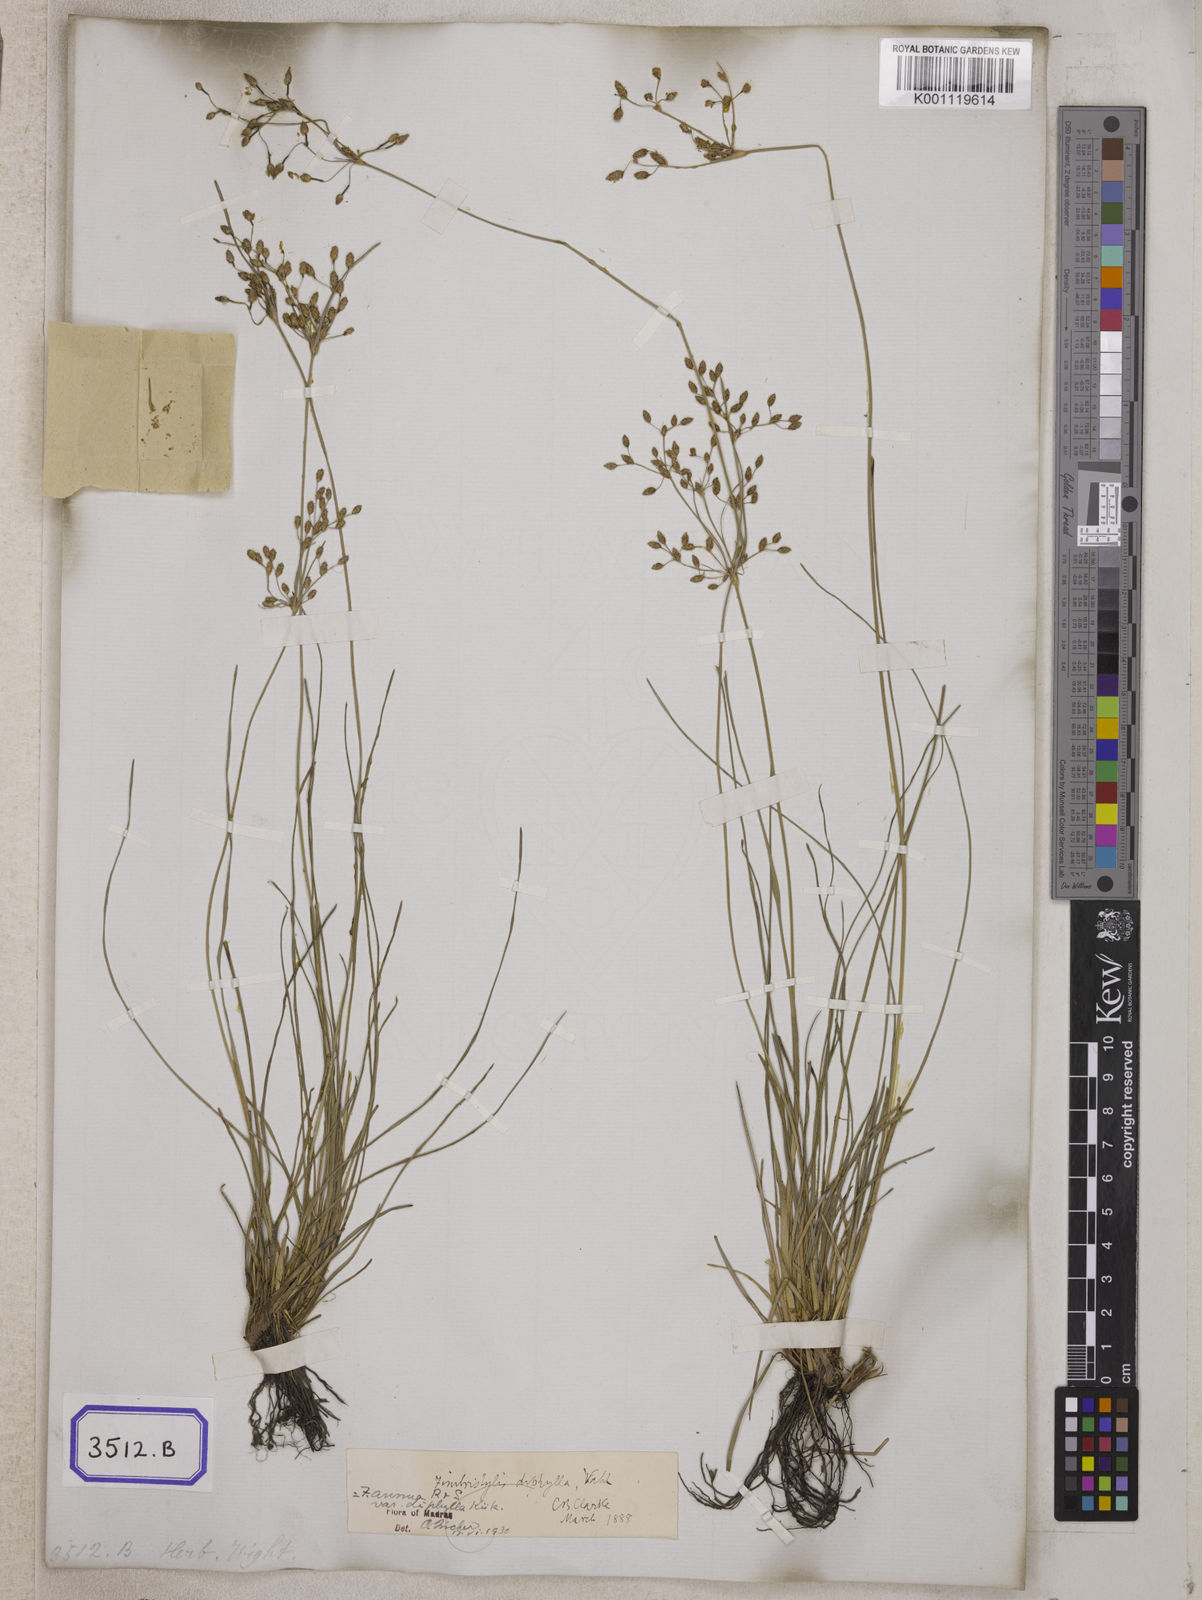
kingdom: Plantae
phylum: Tracheophyta
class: Liliopsida
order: Poales
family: Cyperaceae
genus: Fimbristylis
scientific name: Fimbristylis
